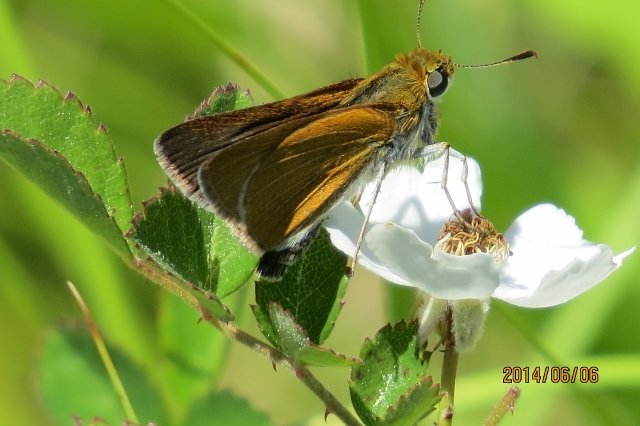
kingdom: Animalia
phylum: Arthropoda
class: Insecta
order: Lepidoptera
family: Hesperiidae
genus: Euphyes
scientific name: Euphyes bimacula
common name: Two-spotted Skipper
